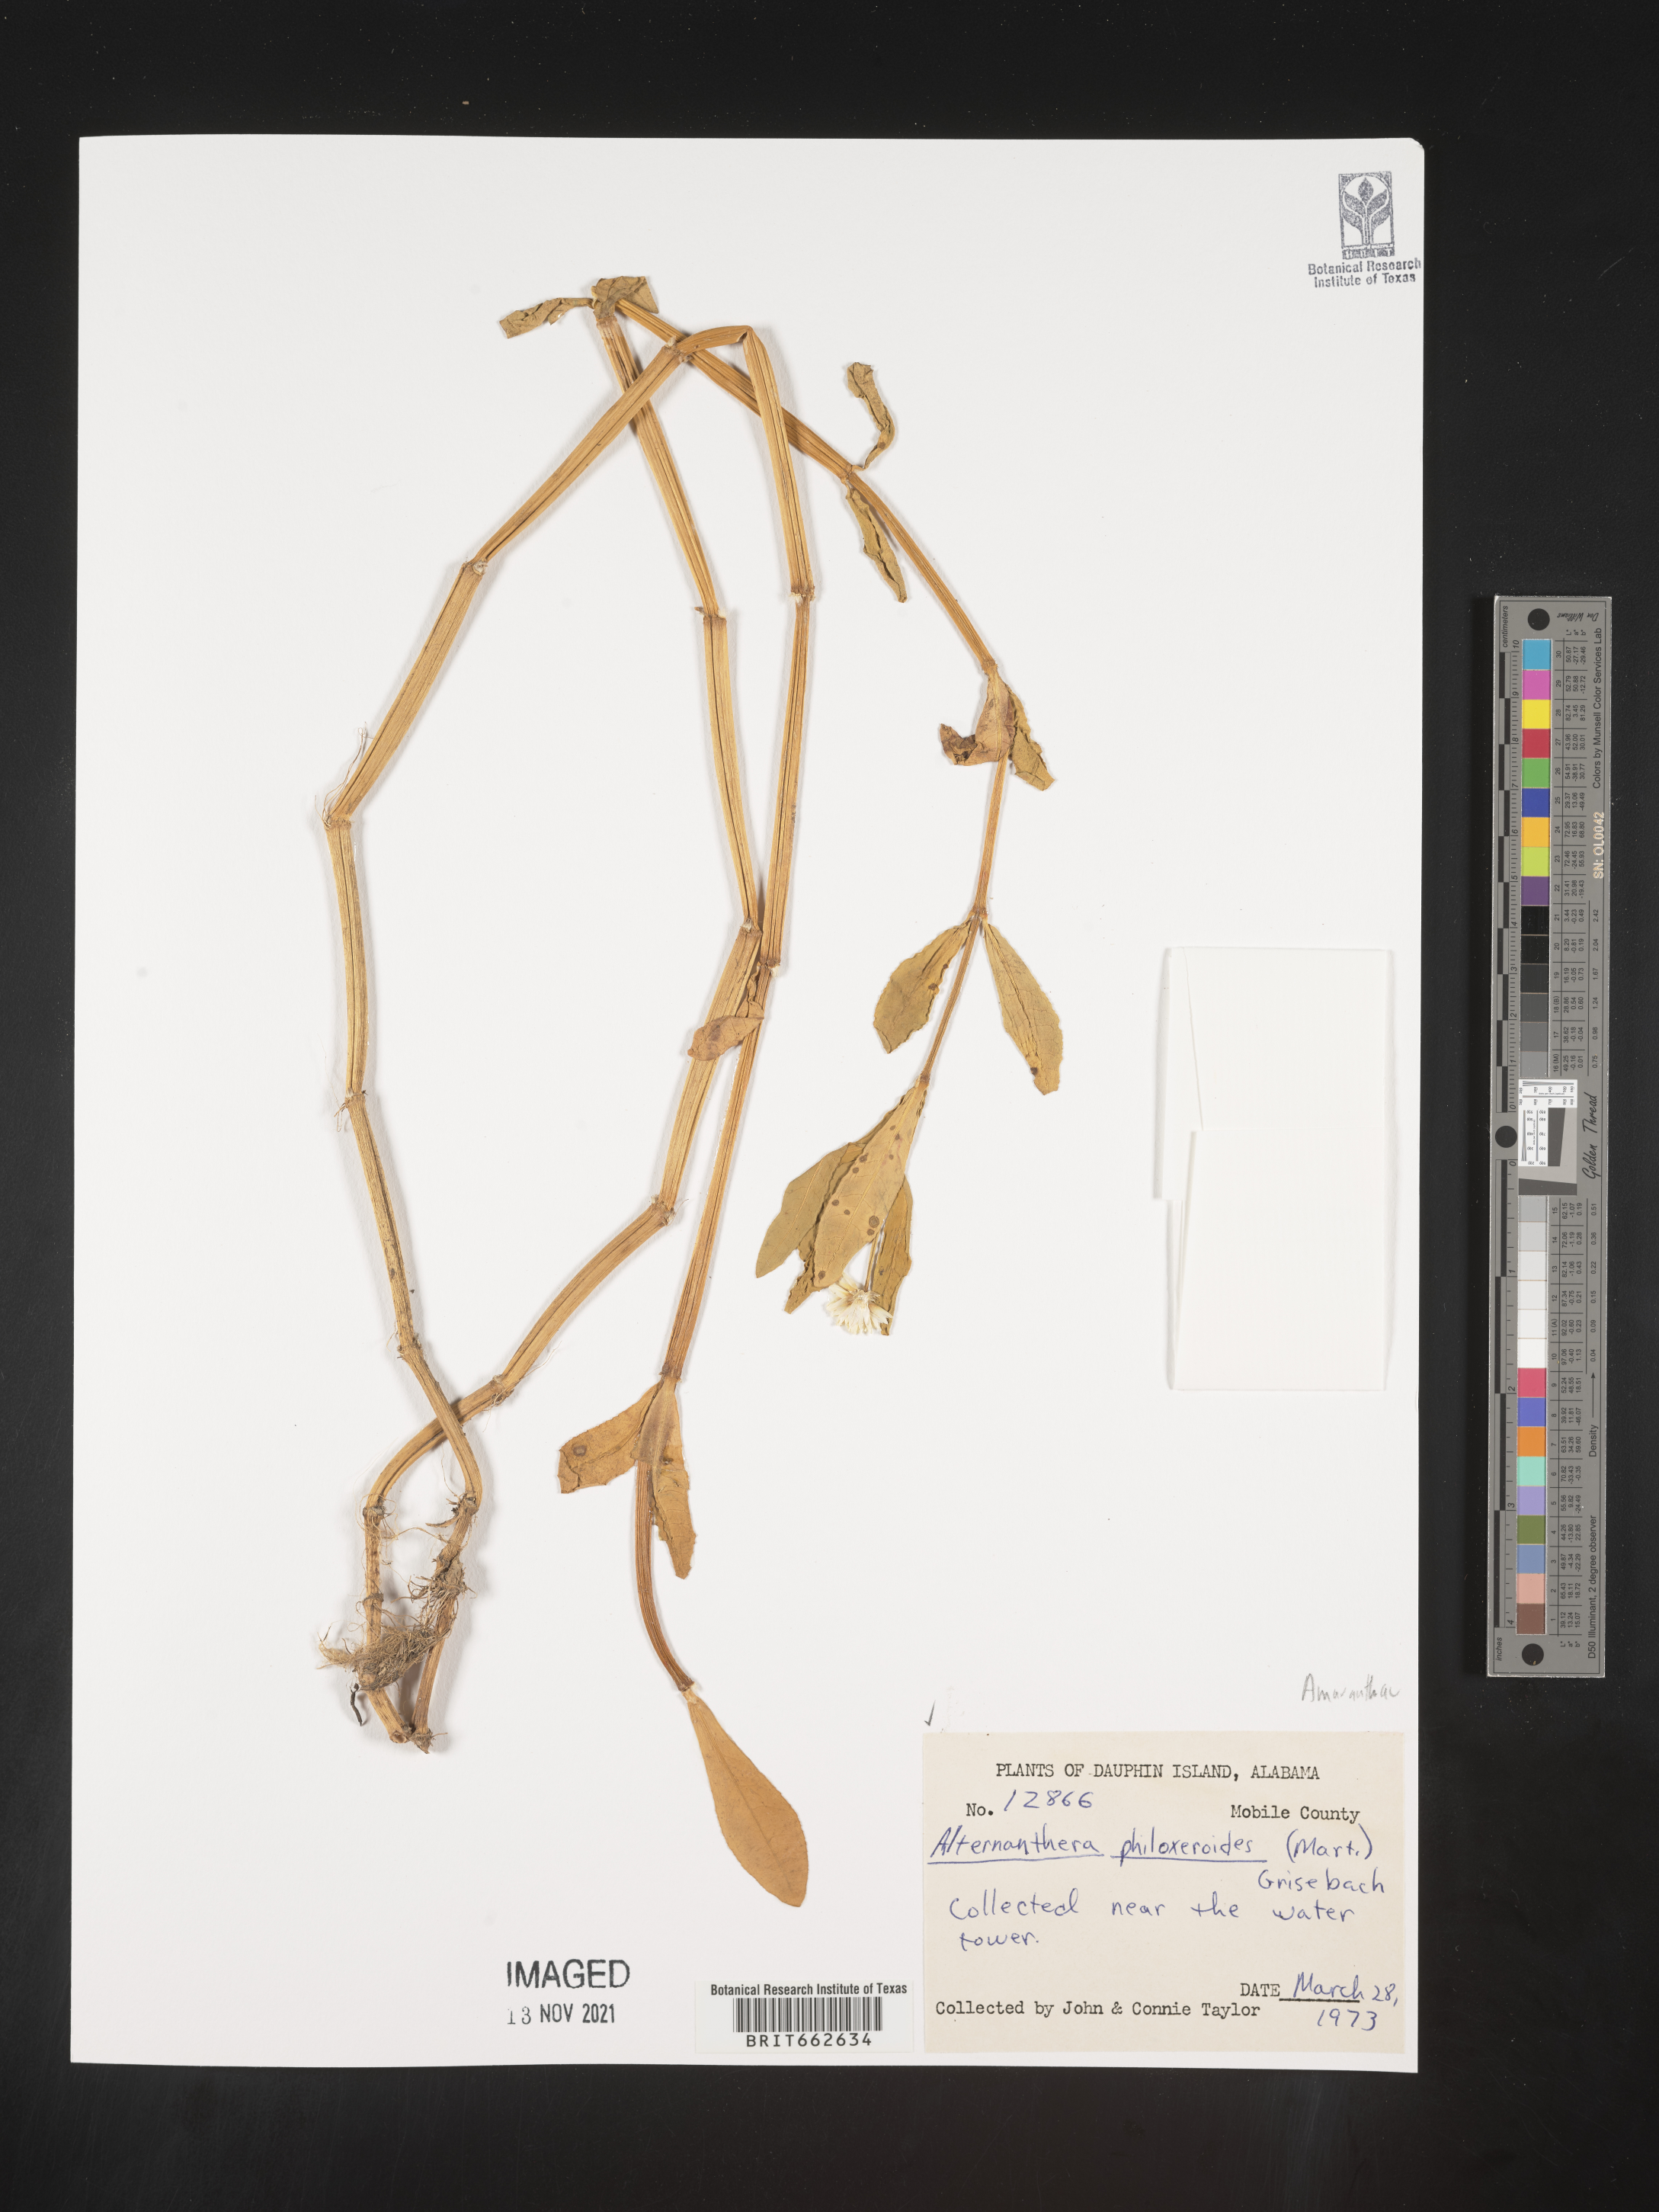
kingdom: Plantae
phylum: Tracheophyta
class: Magnoliopsida
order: Caryophyllales
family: Amaranthaceae
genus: Alternanthera
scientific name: Alternanthera philoxeroides
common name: Alligatorweed
